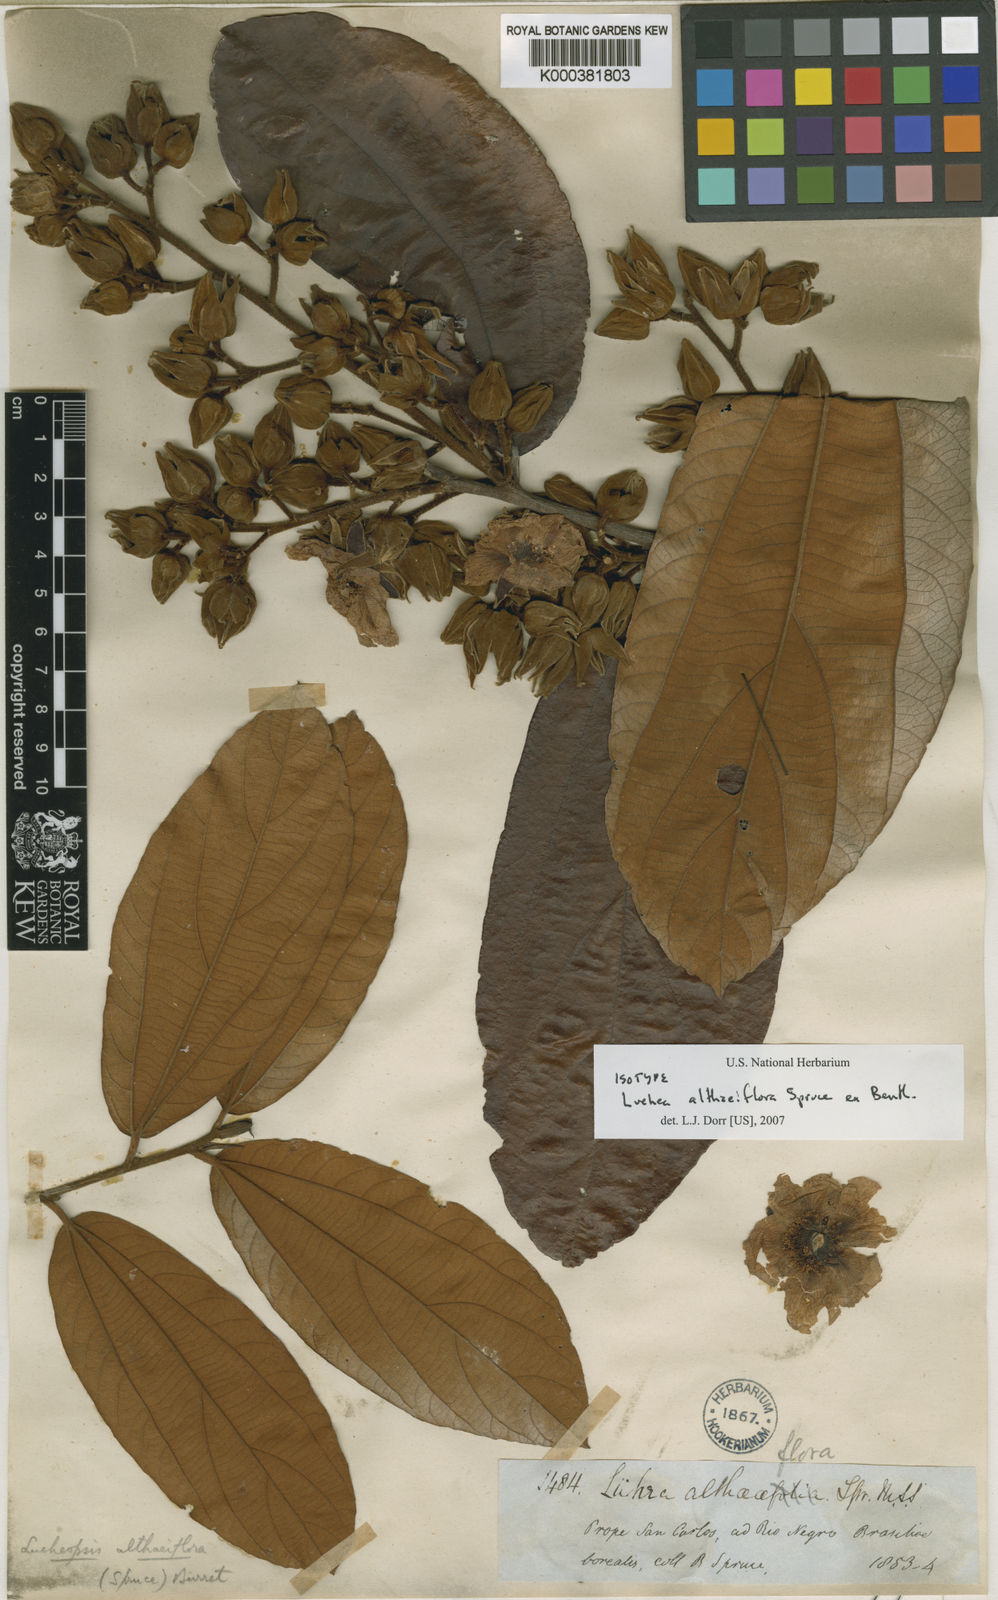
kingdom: Plantae
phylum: Tracheophyta
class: Magnoliopsida
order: Malvales
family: Malvaceae
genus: Lueheopsis
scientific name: Lueheopsis althaeiflora
